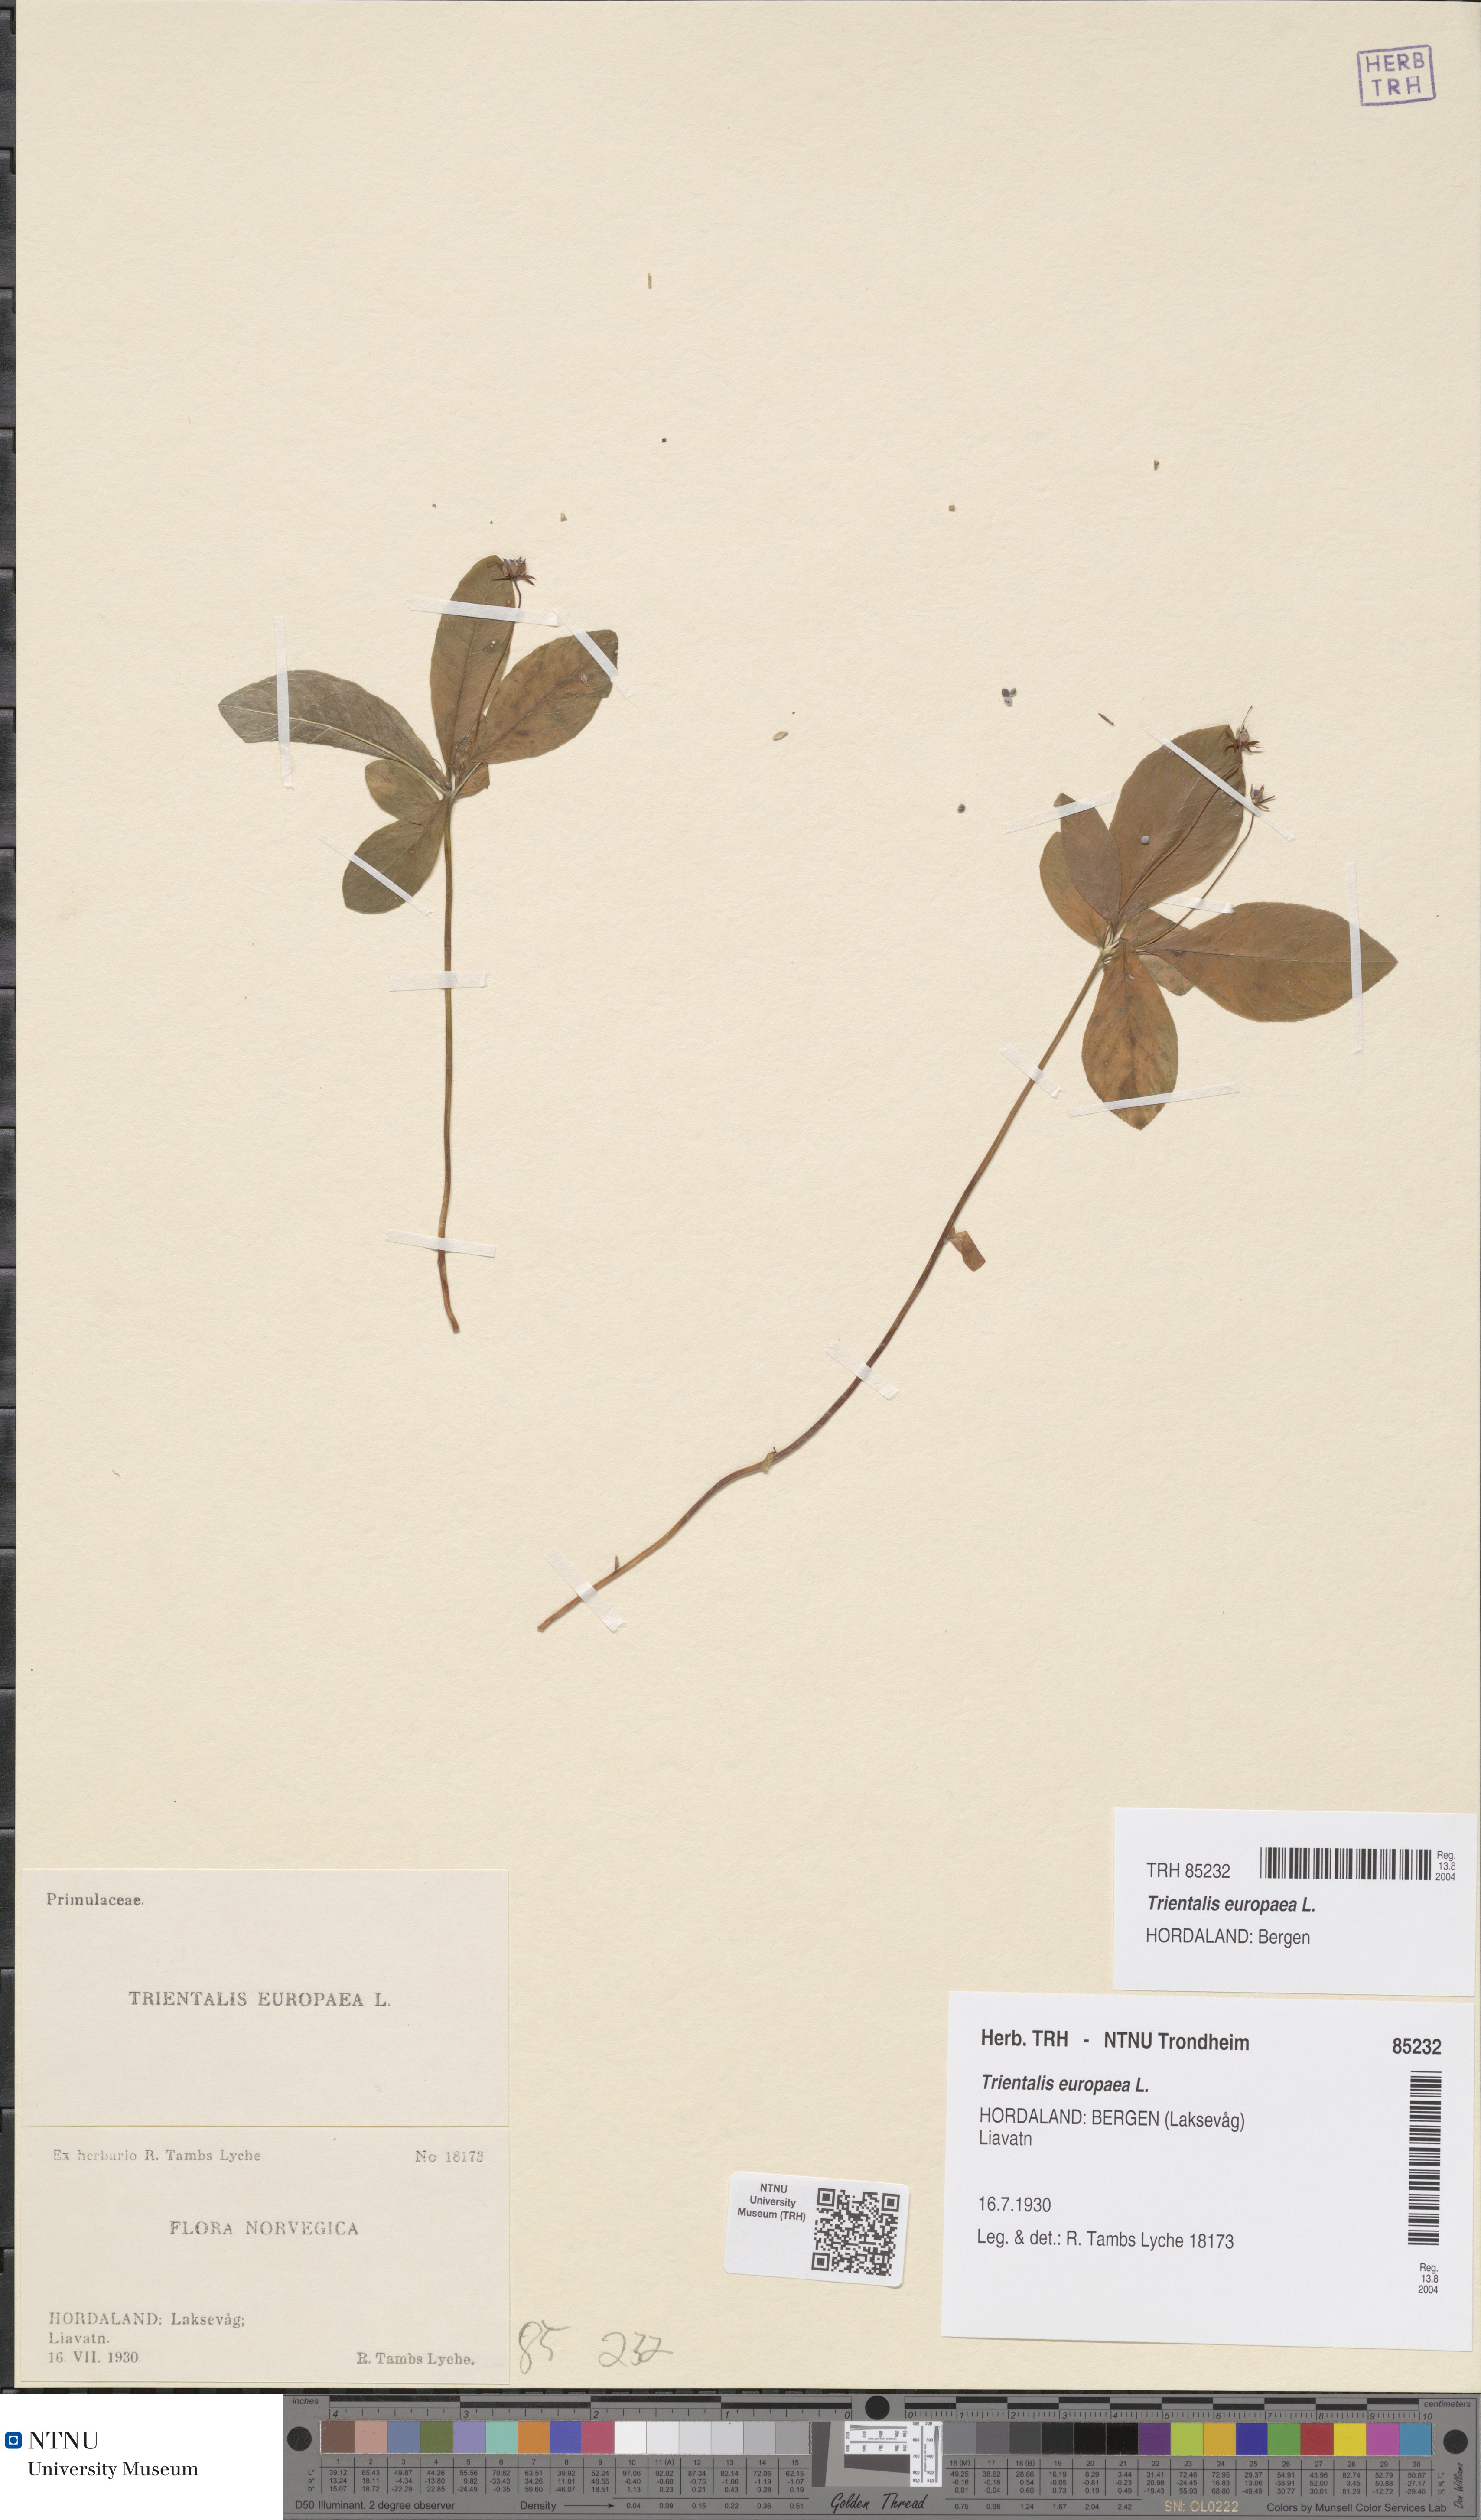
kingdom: Plantae
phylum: Tracheophyta
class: Magnoliopsida
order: Ericales
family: Primulaceae
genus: Lysimachia
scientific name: Lysimachia europaea
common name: Arctic starflower
